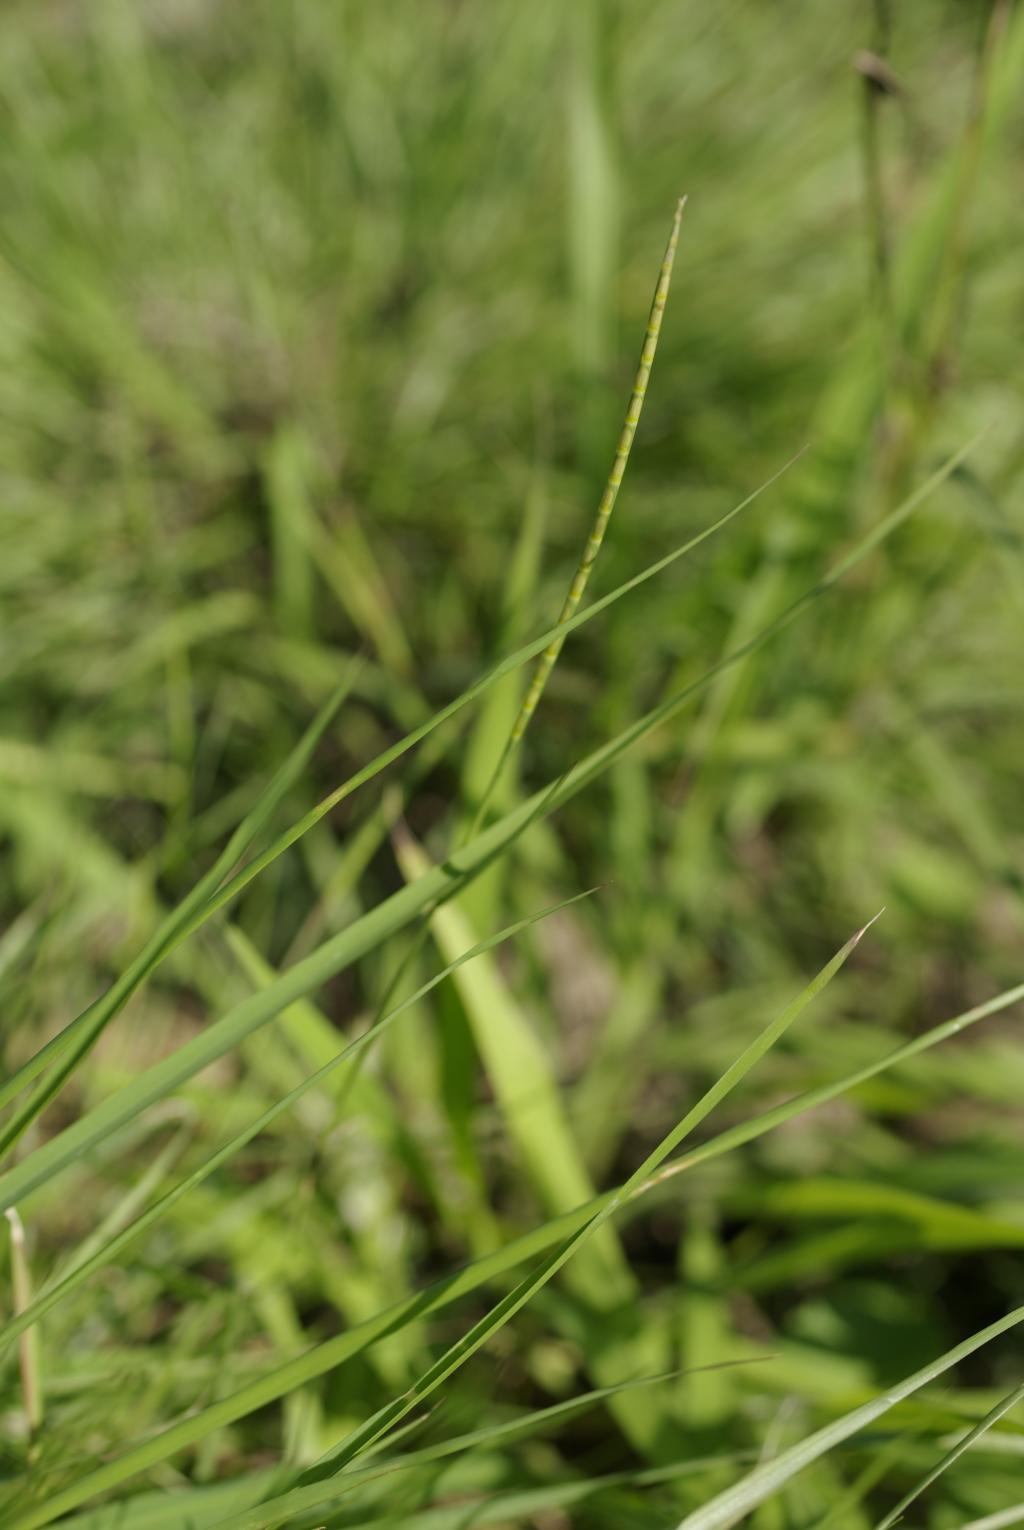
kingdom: Plantae
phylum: Tracheophyta
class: Liliopsida
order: Poales
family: Poaceae
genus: Mnesithea
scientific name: Mnesithea laevis
